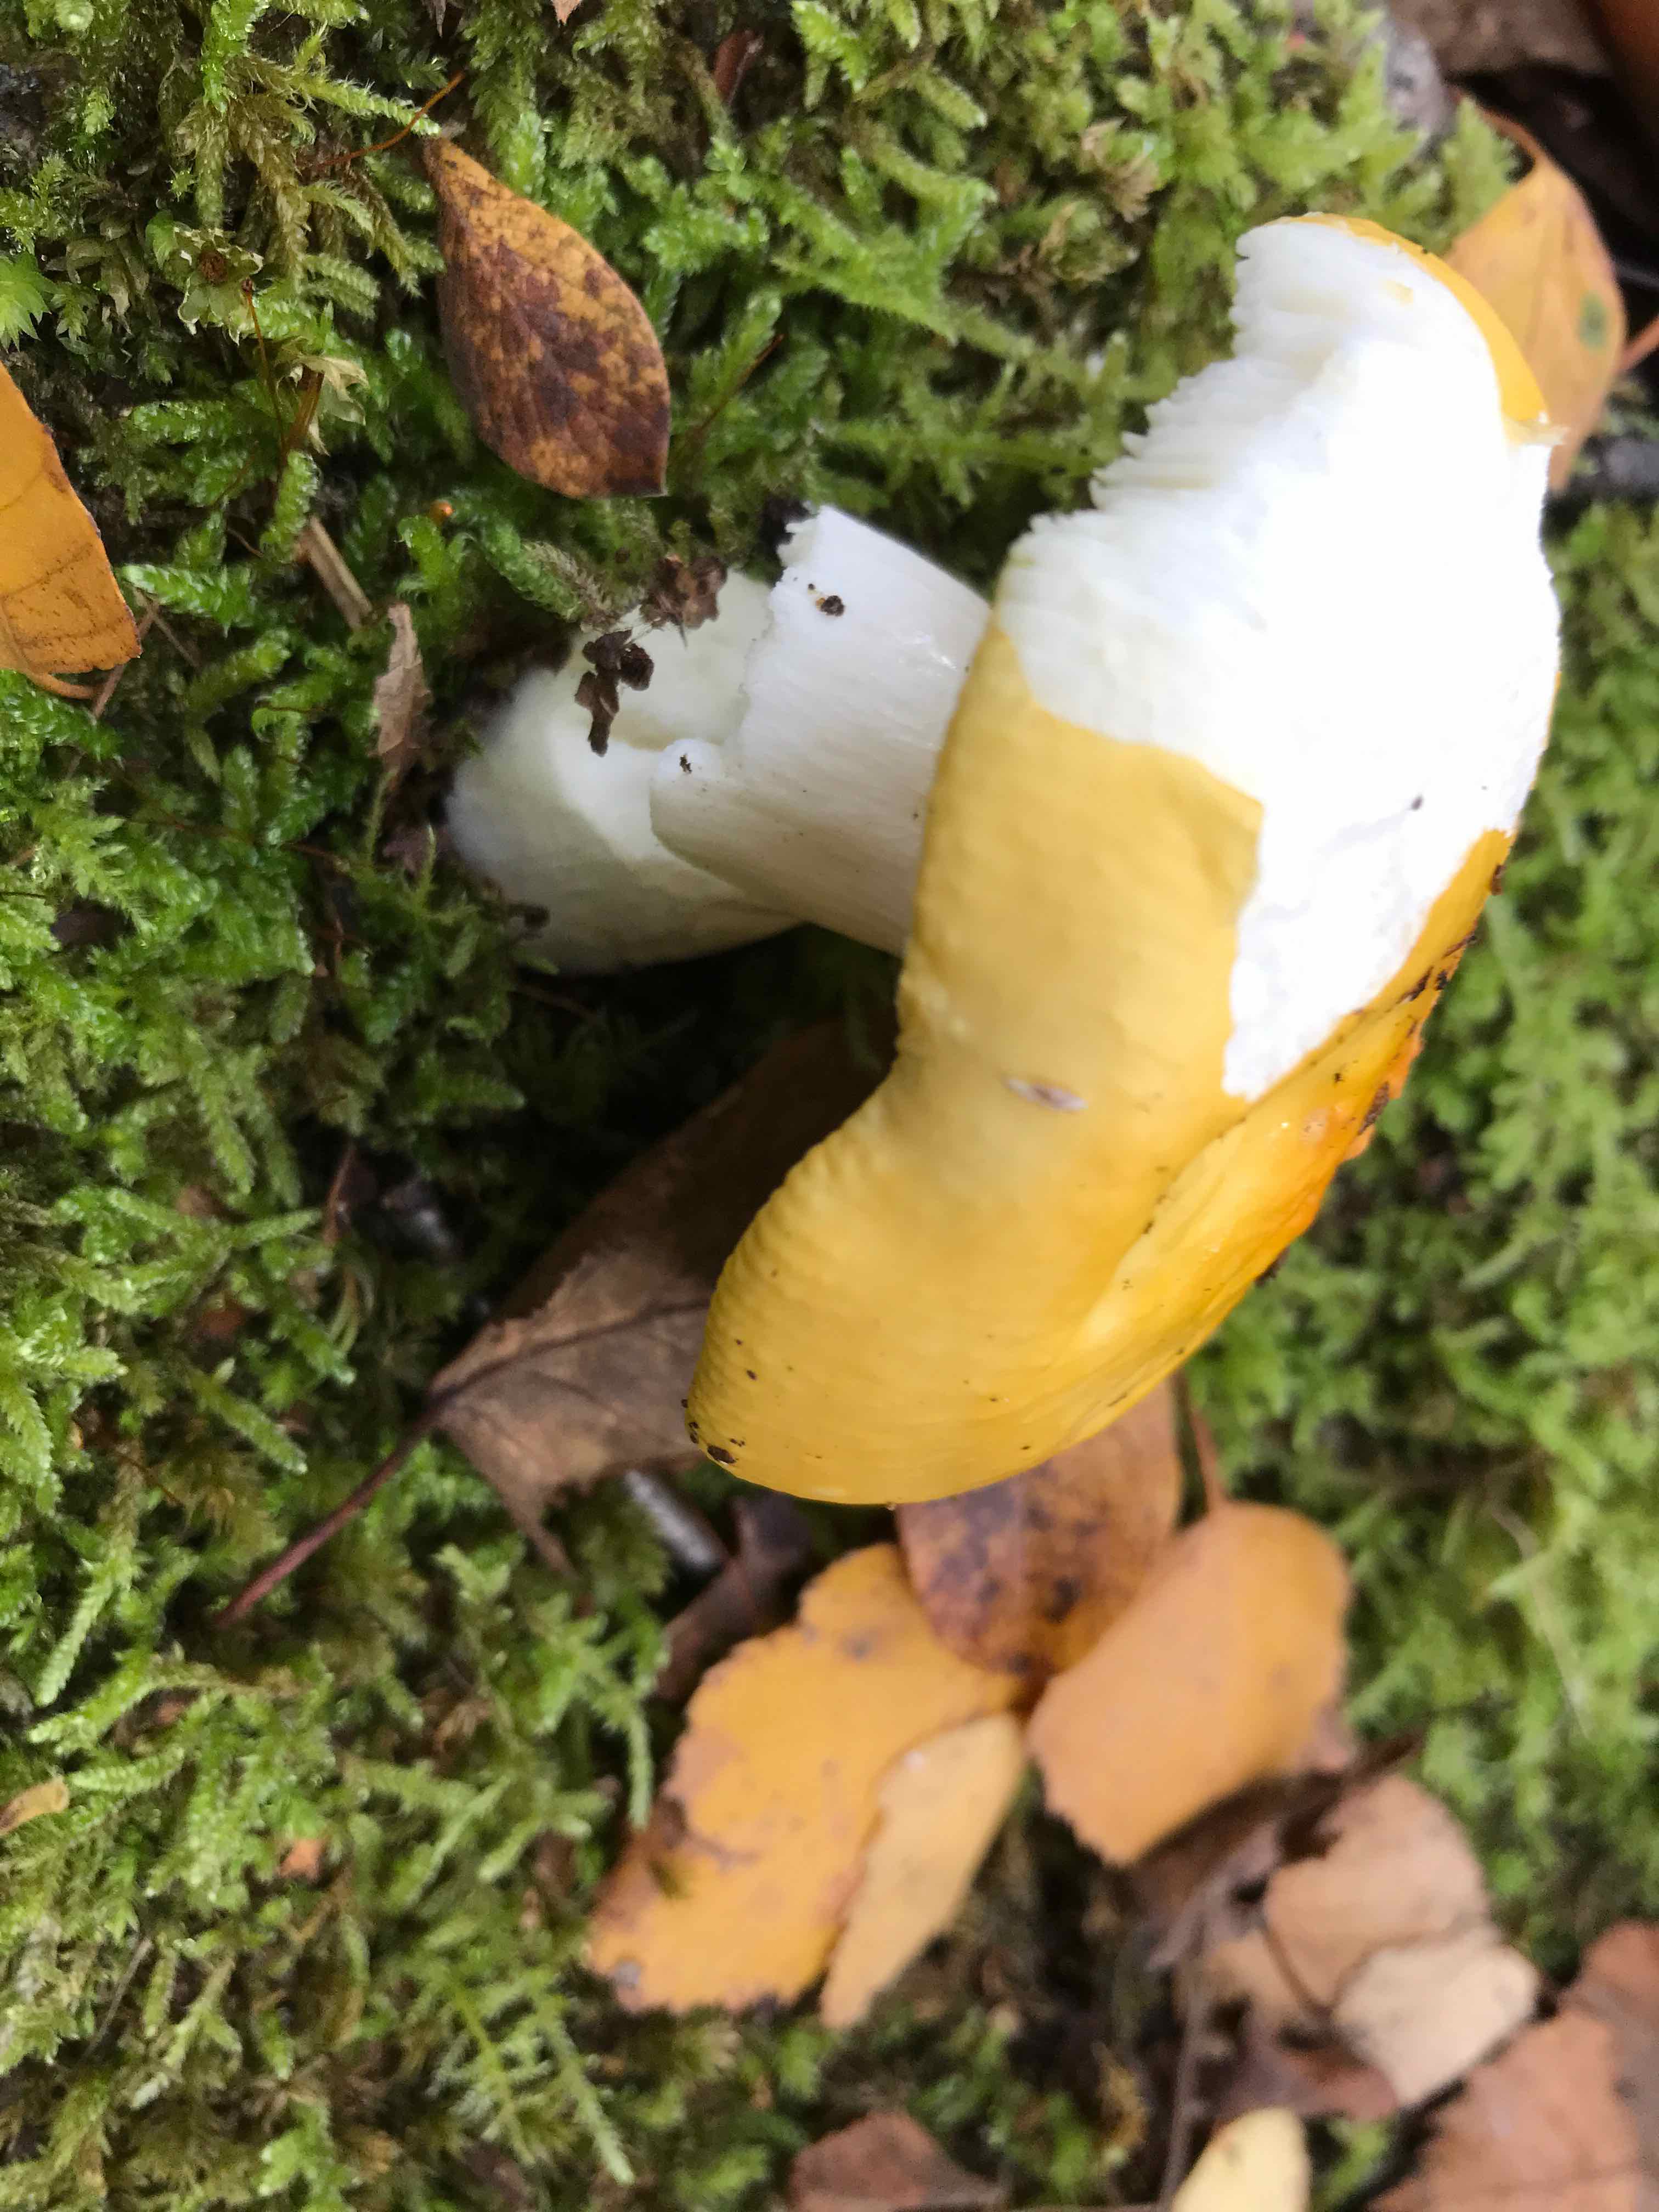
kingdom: Fungi
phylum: Basidiomycota
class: Agaricomycetes
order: Russulales
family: Russulaceae
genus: Russula
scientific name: Russula claroflava
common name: birke-skørhat
